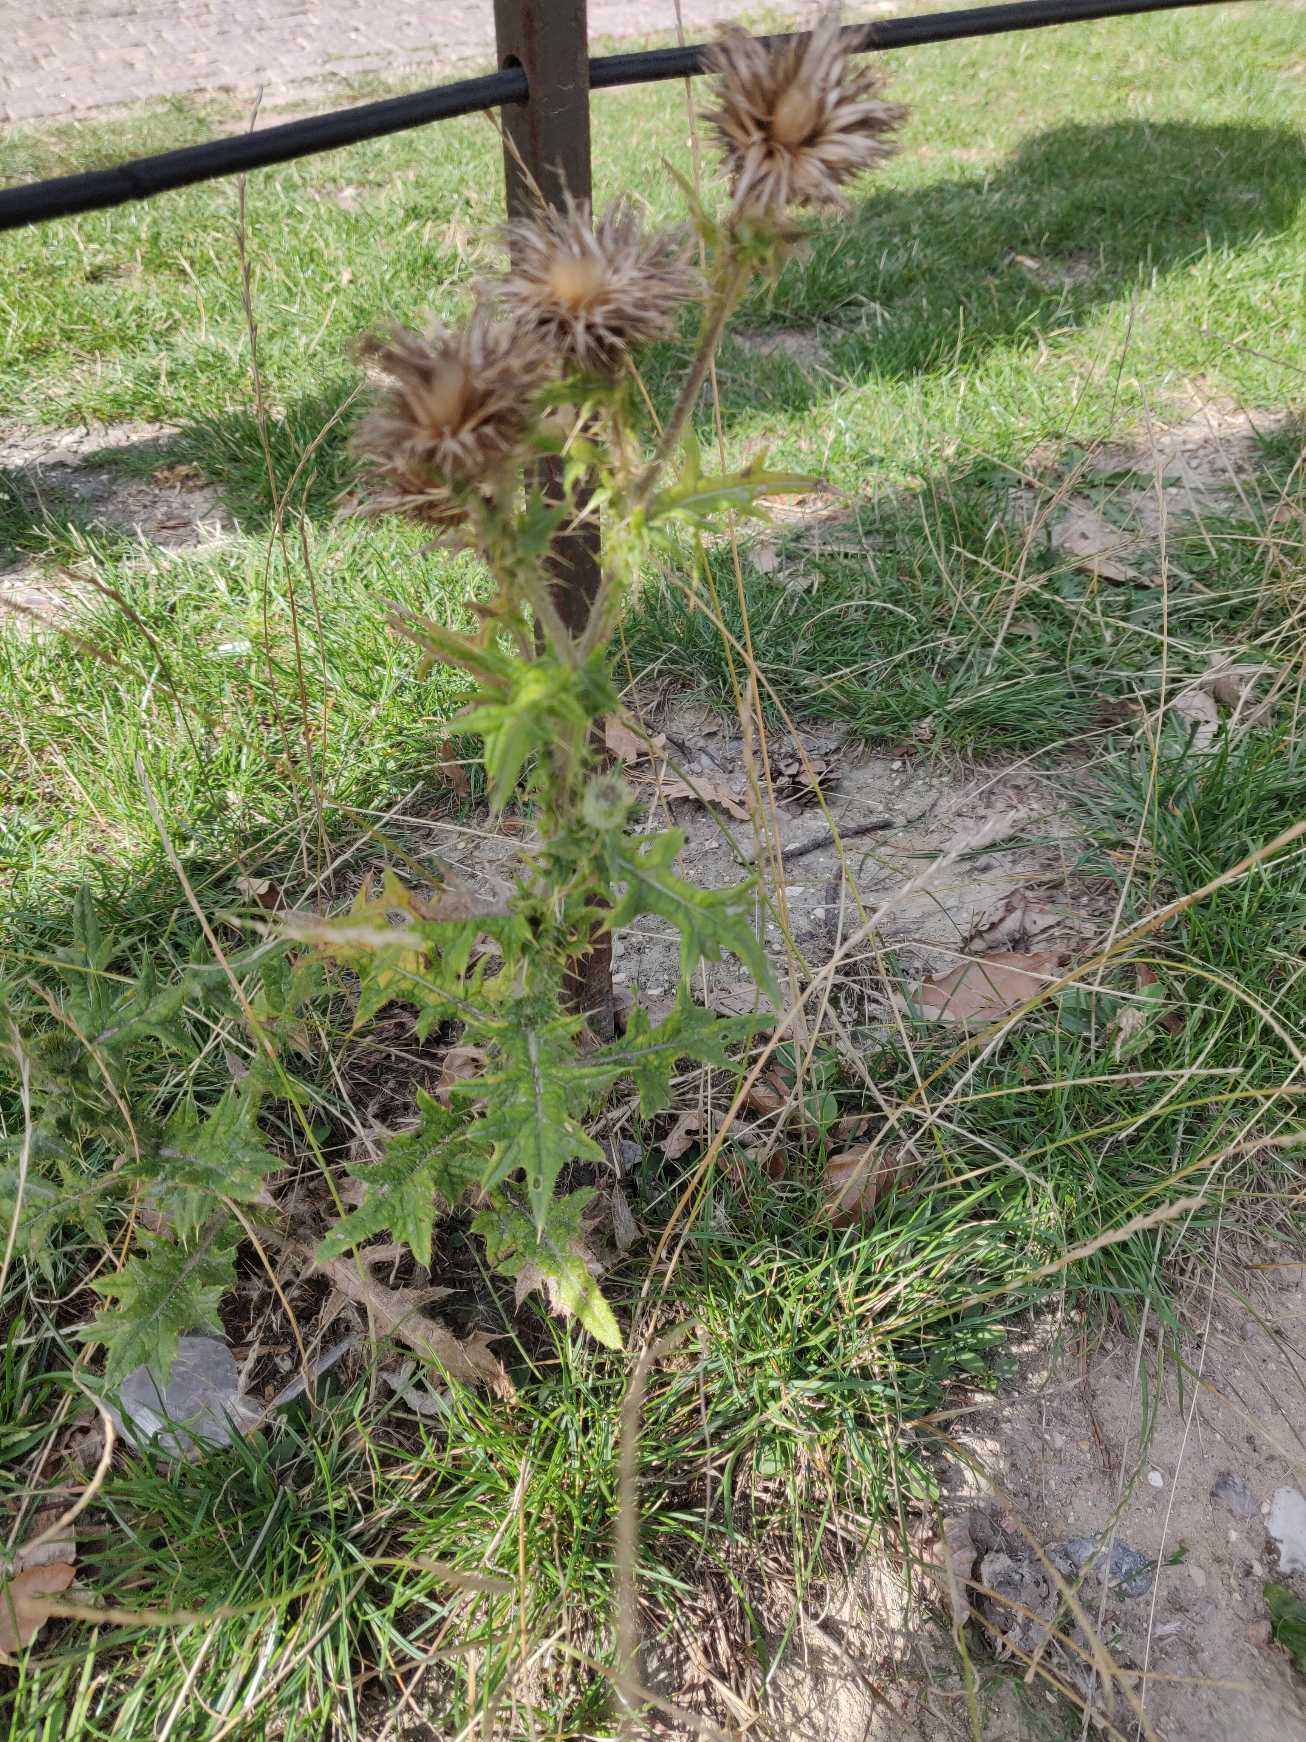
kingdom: Plantae
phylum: Tracheophyta
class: Magnoliopsida
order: Asterales
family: Asteraceae
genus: Cirsium
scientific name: Cirsium vulgare
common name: Horse-tidsel
